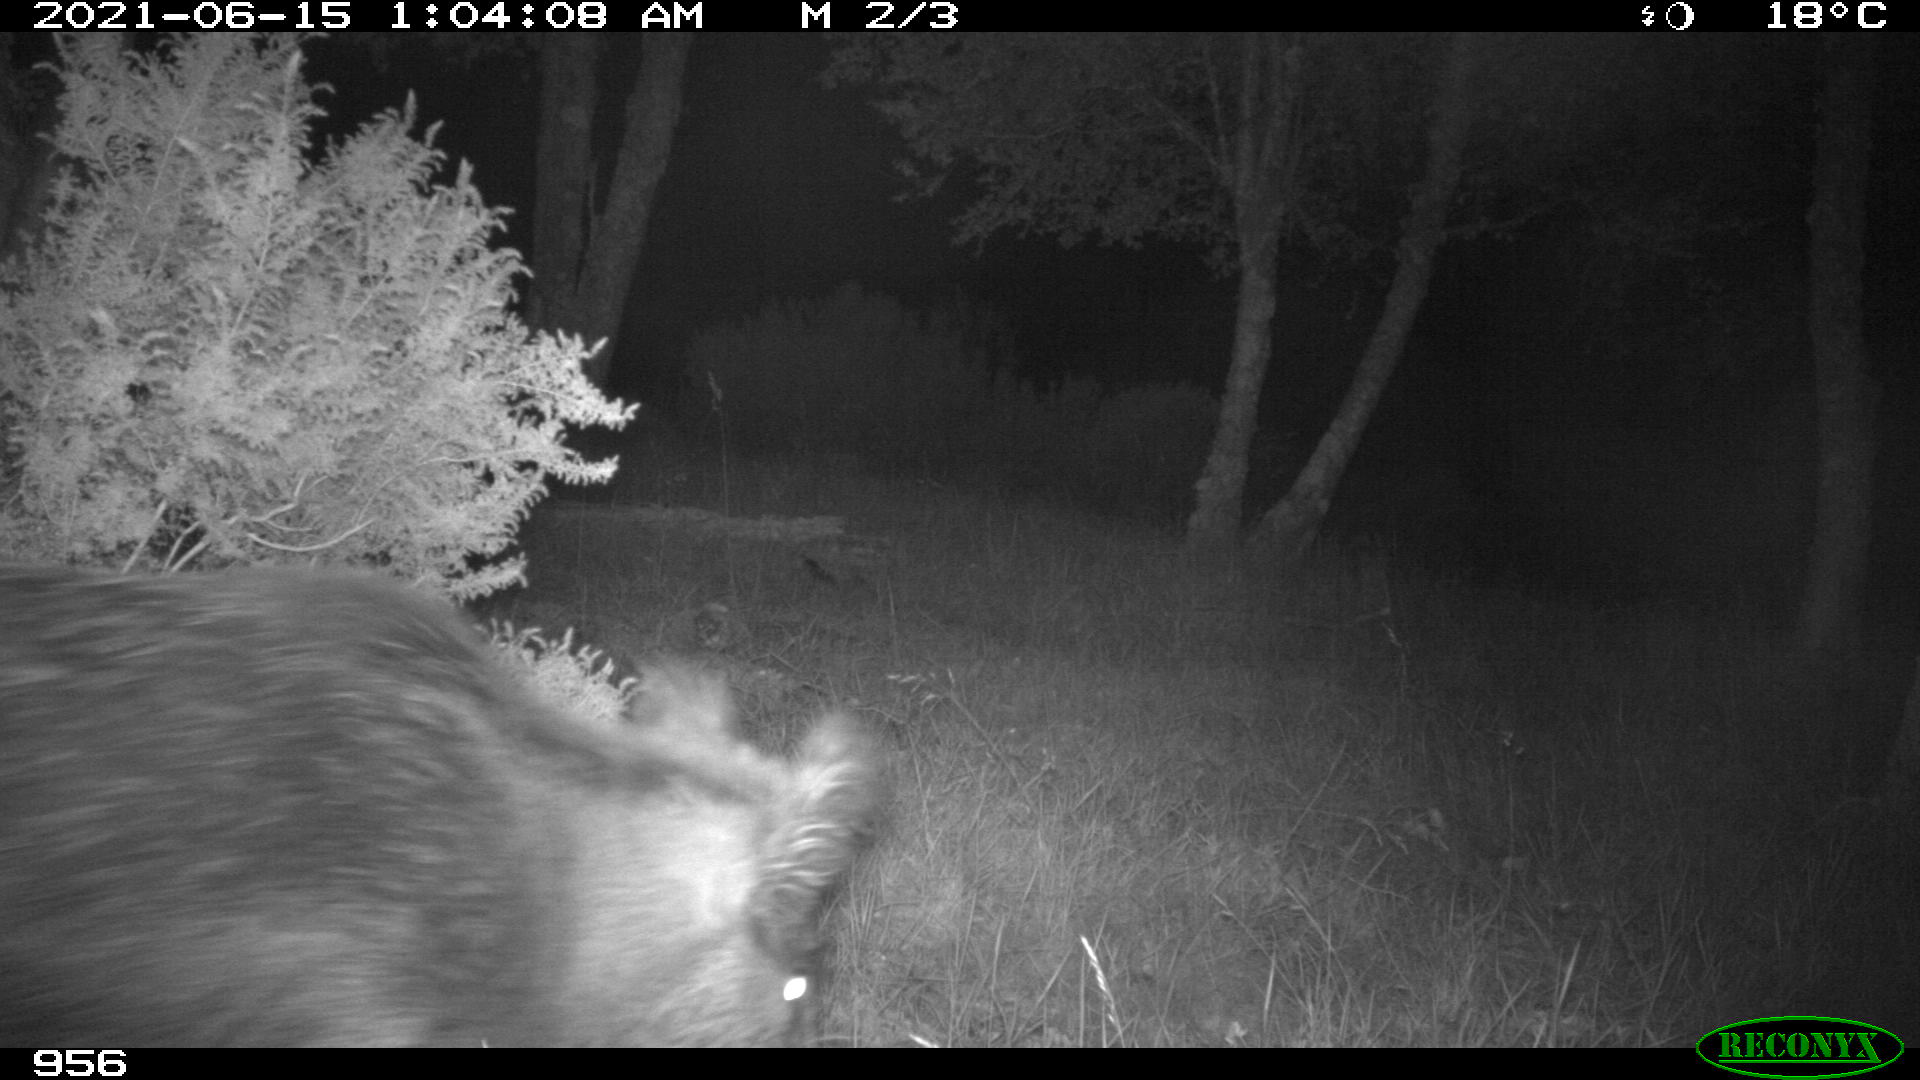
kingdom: Animalia
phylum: Chordata
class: Mammalia
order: Artiodactyla
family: Suidae
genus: Sus
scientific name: Sus scrofa
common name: Wild boar
